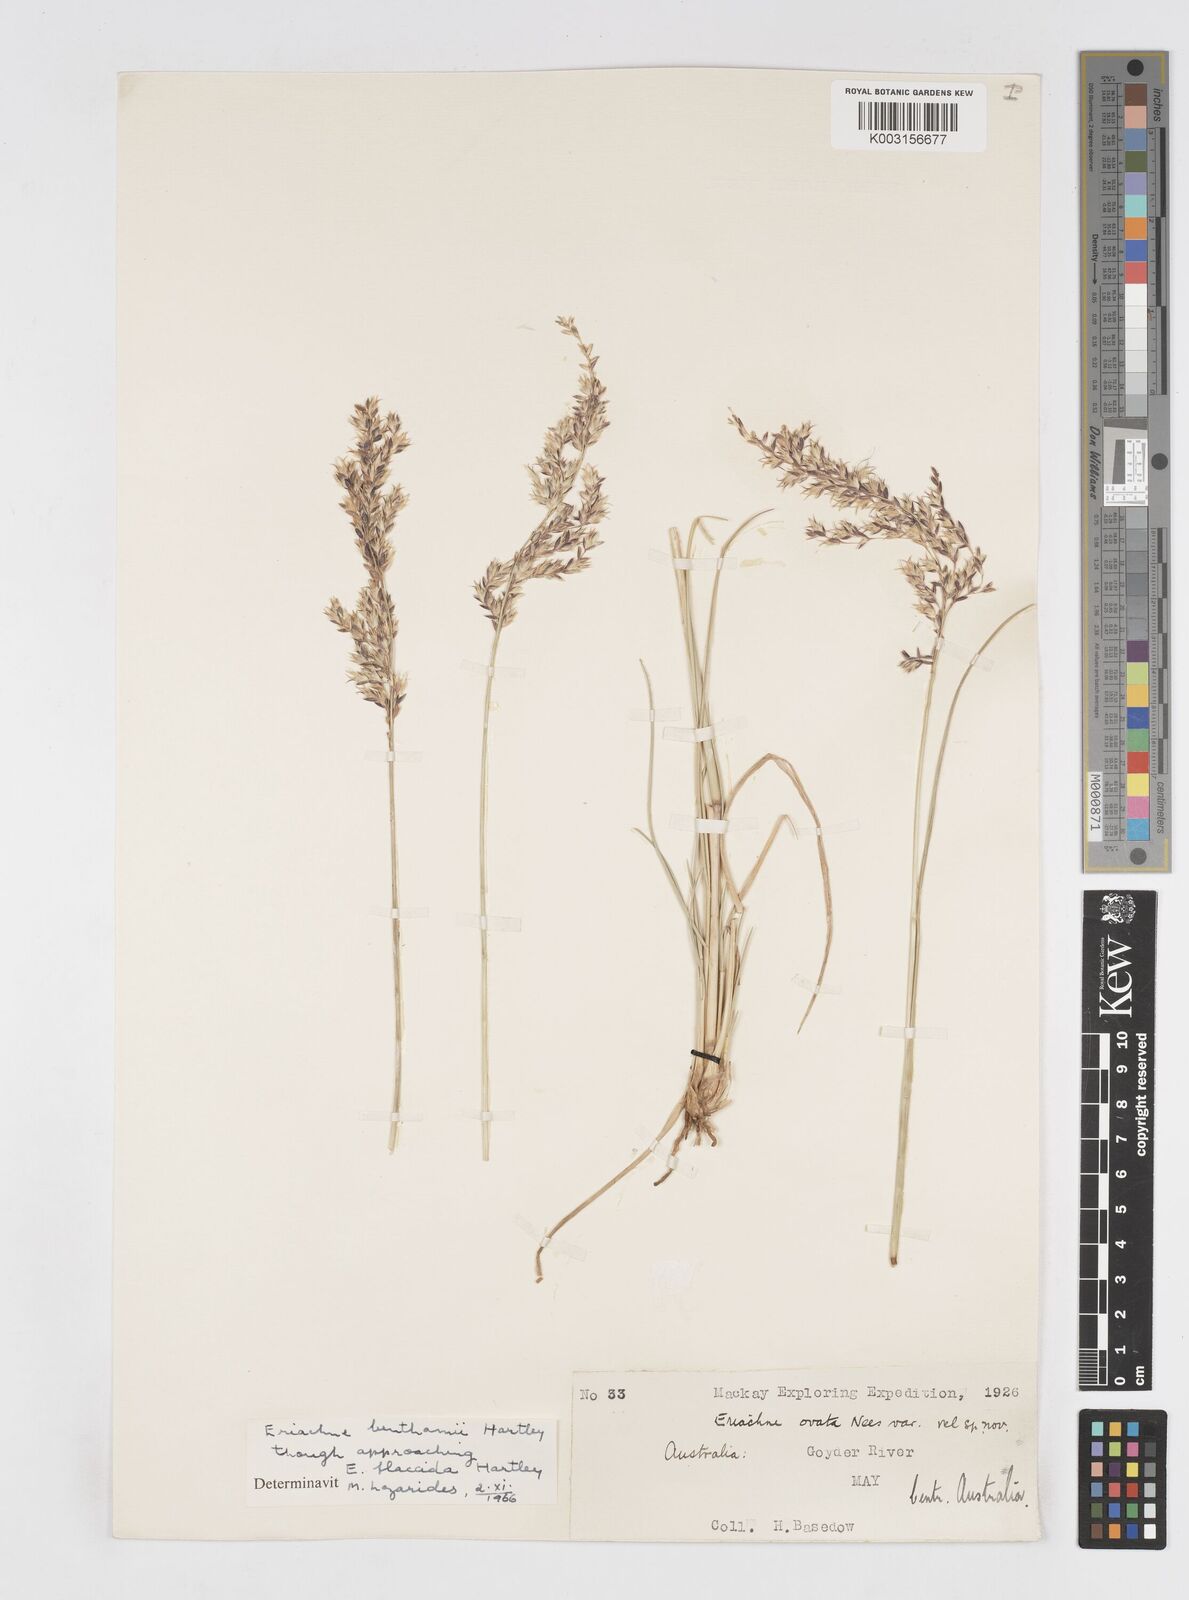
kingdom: Plantae
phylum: Tracheophyta
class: Liliopsida
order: Poales
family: Poaceae
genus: Eriachne
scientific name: Eriachne benthamii
